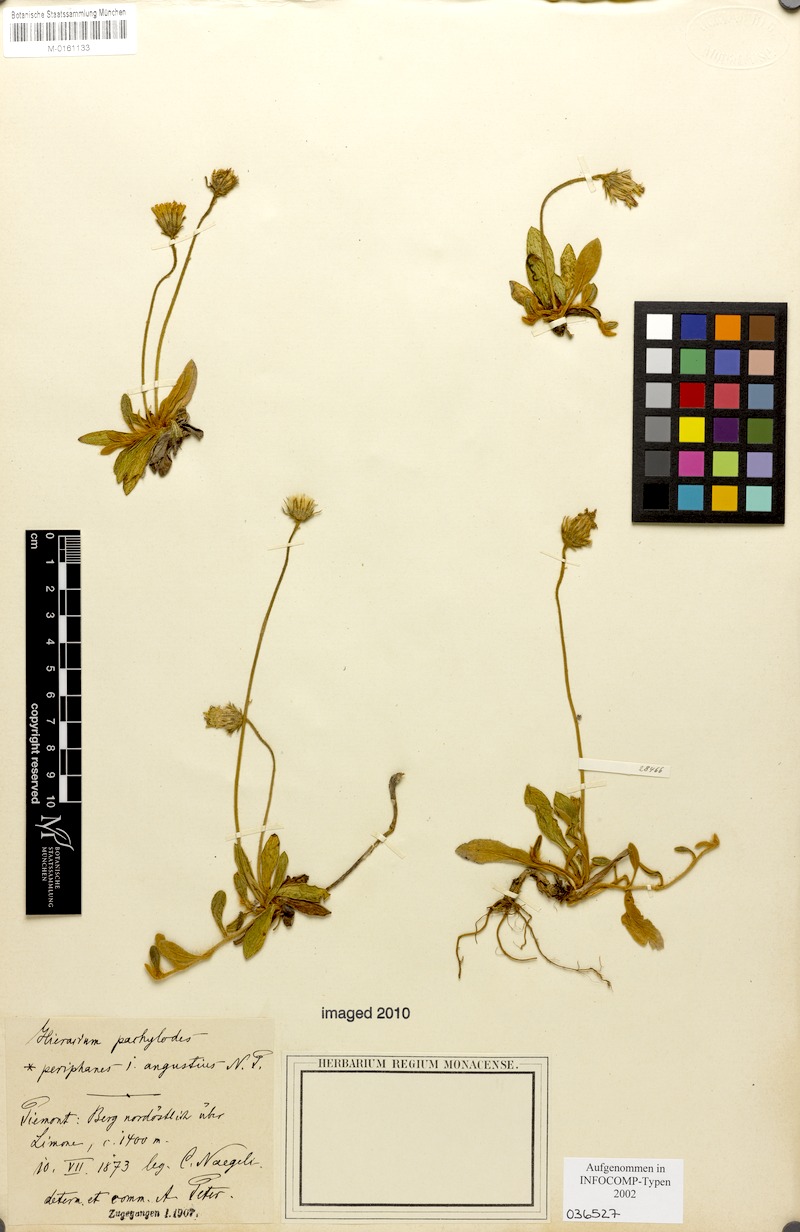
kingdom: Plantae
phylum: Tracheophyta
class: Magnoliopsida
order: Asterales
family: Asteraceae
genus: Pilosella
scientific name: Pilosella longisquama
